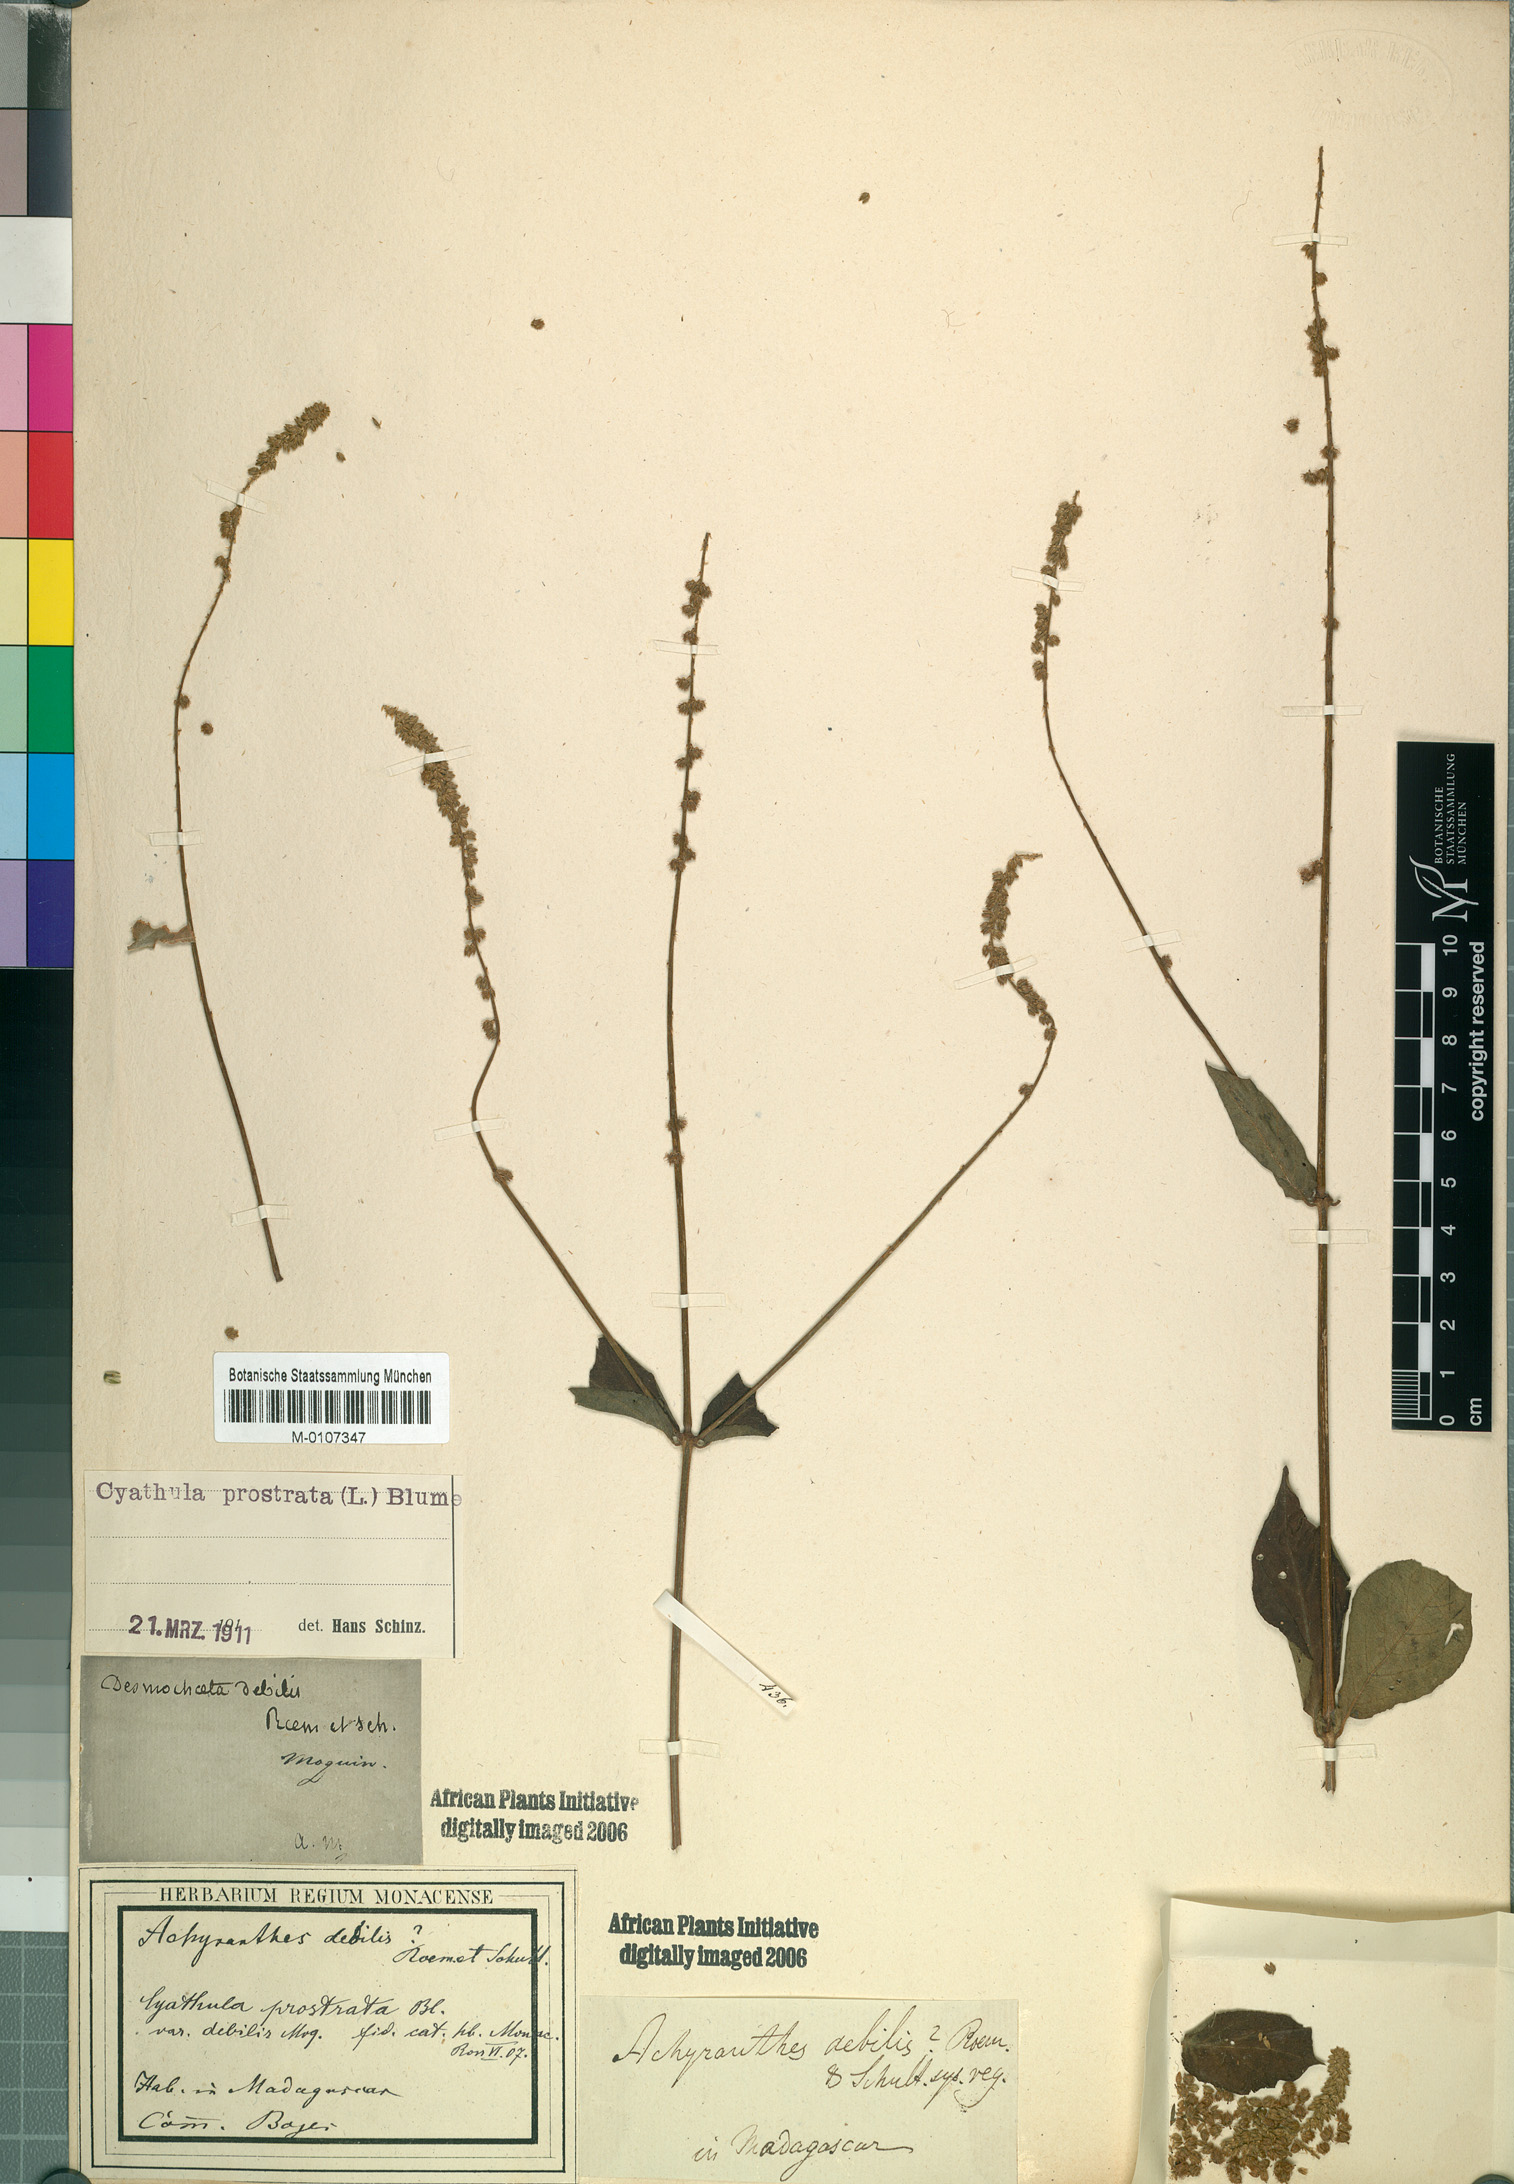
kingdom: Plantae
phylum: Tracheophyta
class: Magnoliopsida
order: Caryophyllales
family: Amaranthaceae
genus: Cyathula
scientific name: Cyathula prostrata
